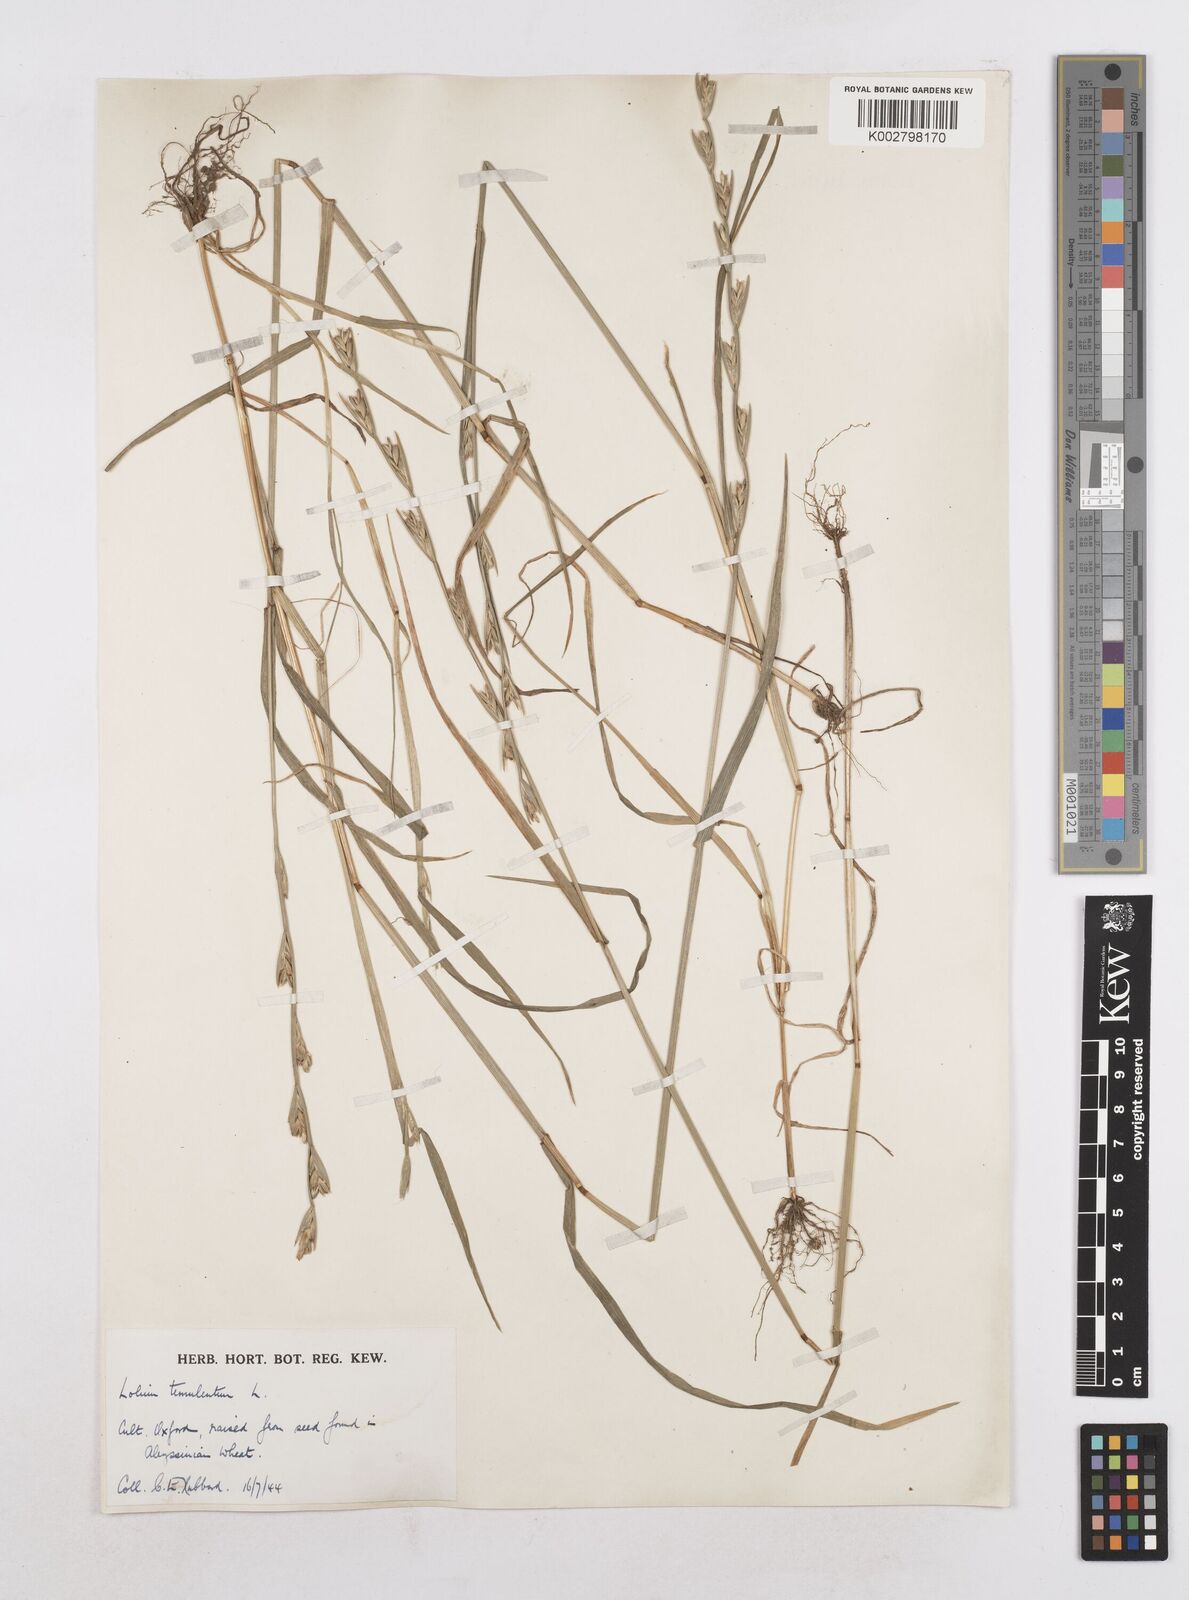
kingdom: Plantae
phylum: Tracheophyta
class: Liliopsida
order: Poales
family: Poaceae
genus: Lolium
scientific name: Lolium temulentum
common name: Darnel
